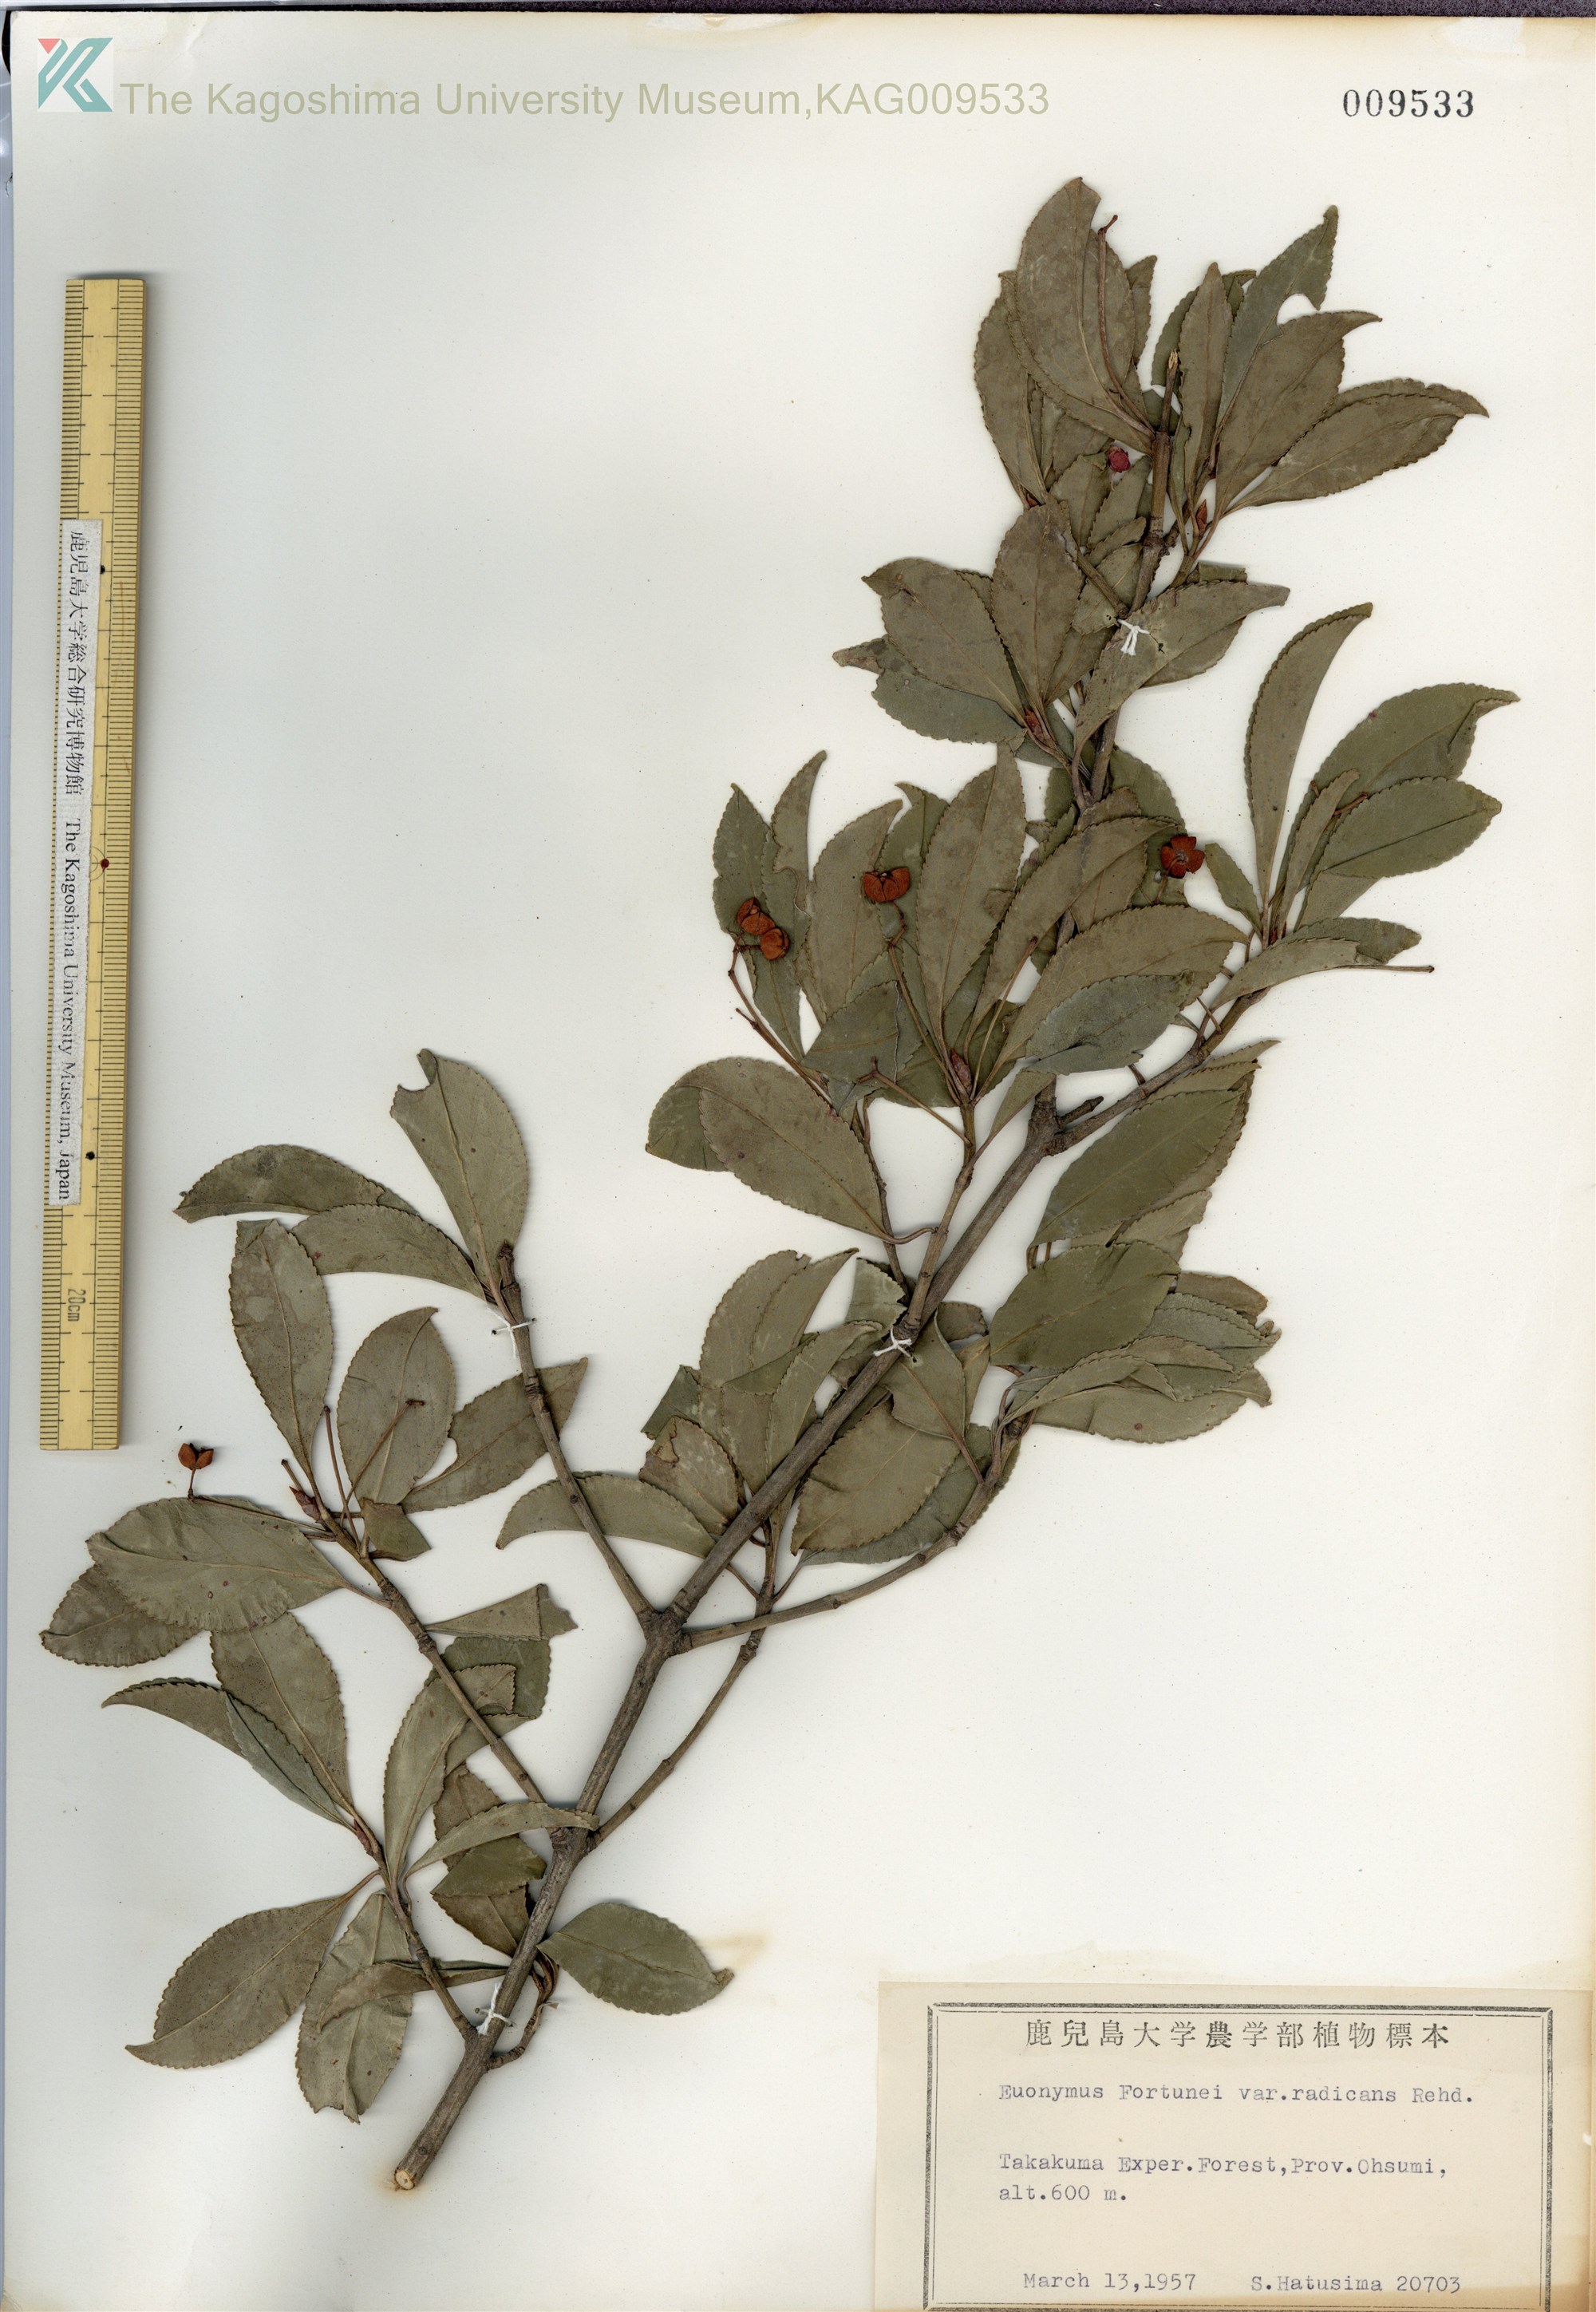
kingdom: Plantae
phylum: Tracheophyta
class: Magnoliopsida
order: Celastrales
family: Celastraceae
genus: Euonymus
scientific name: Euonymus fortunei
